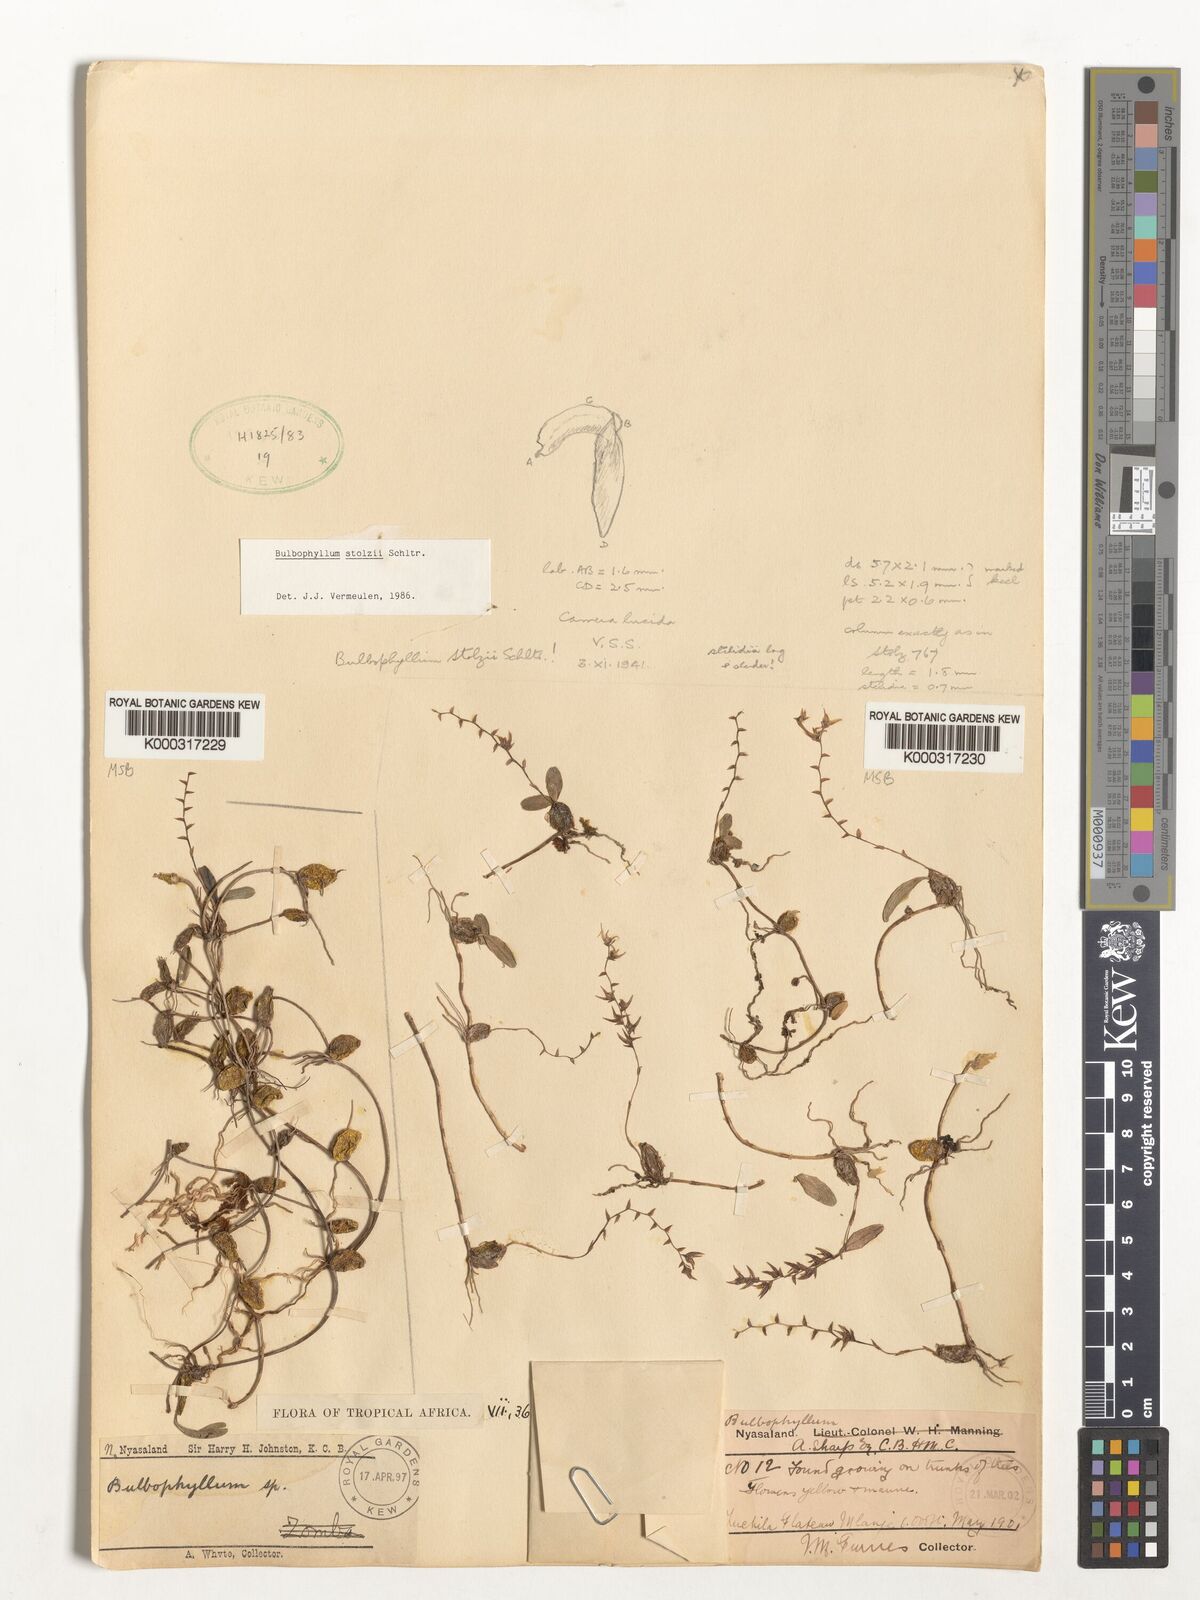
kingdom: Plantae
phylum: Tracheophyta
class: Liliopsida
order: Asparagales
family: Orchidaceae
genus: Bulbophyllum
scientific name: Bulbophyllum stolzii
